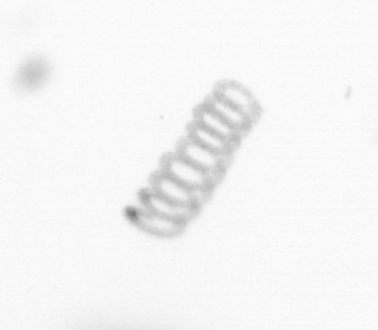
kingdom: Chromista
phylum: Ochrophyta
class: Bacillariophyceae
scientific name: Bacillariophyceae
